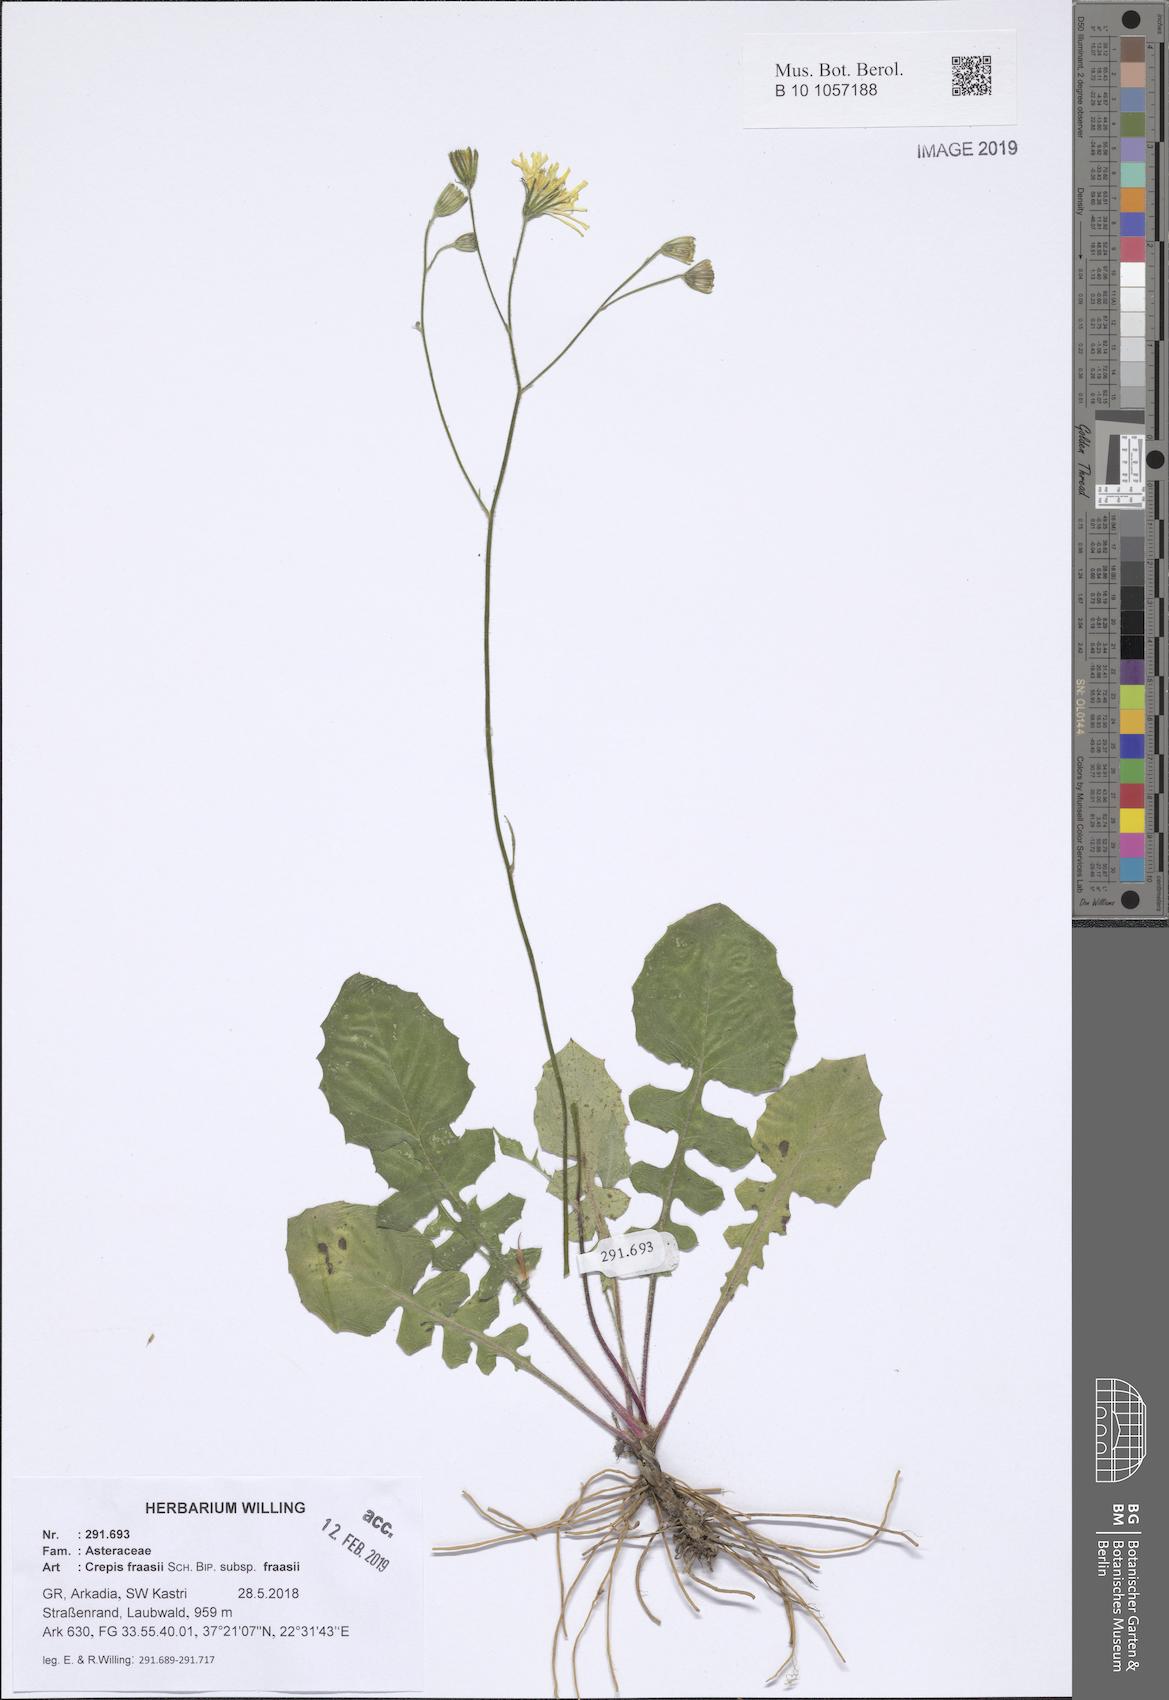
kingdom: Plantae
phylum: Tracheophyta
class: Magnoliopsida
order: Asterales
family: Asteraceae
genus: Crepis
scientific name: Crepis fraasii
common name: Hawk's-beard
